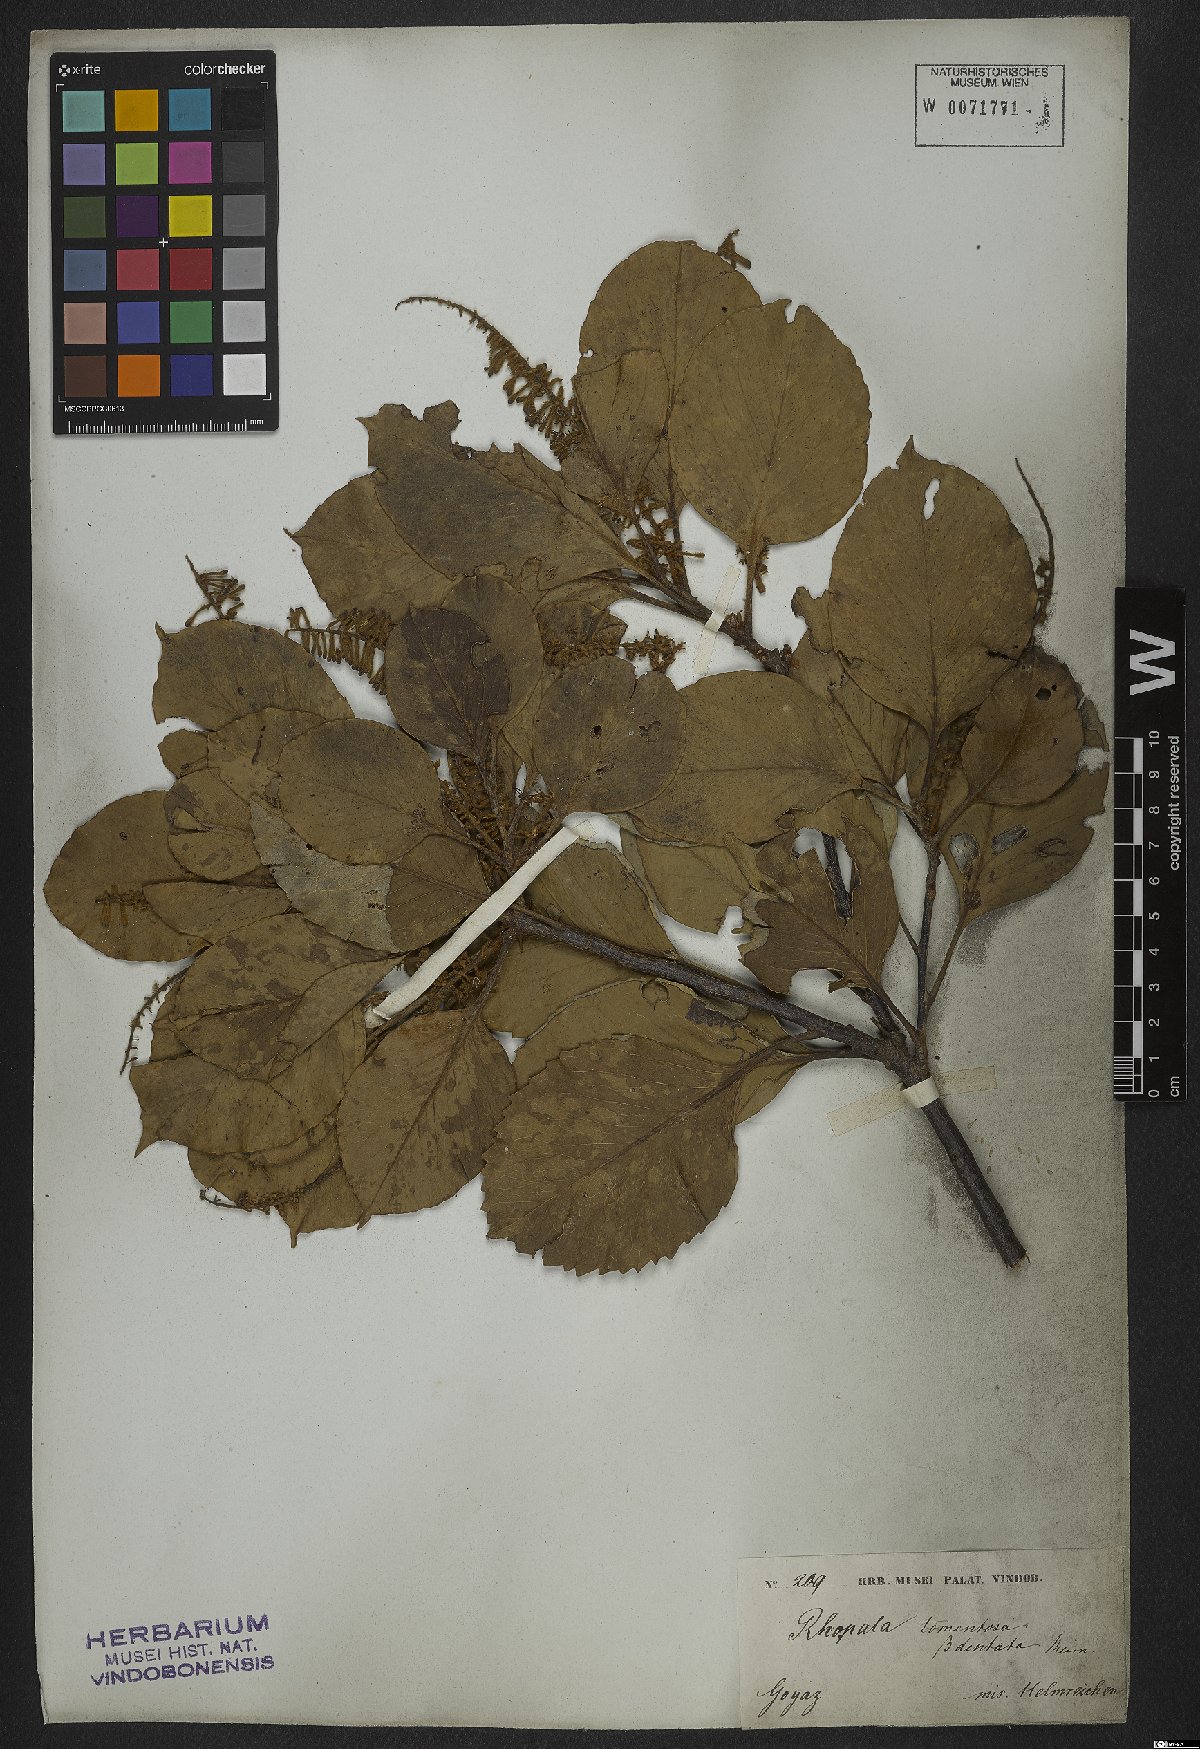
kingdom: Plantae
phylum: Tracheophyta
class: Magnoliopsida
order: Proteales
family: Proteaceae
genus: Roupala
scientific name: Roupala montana
